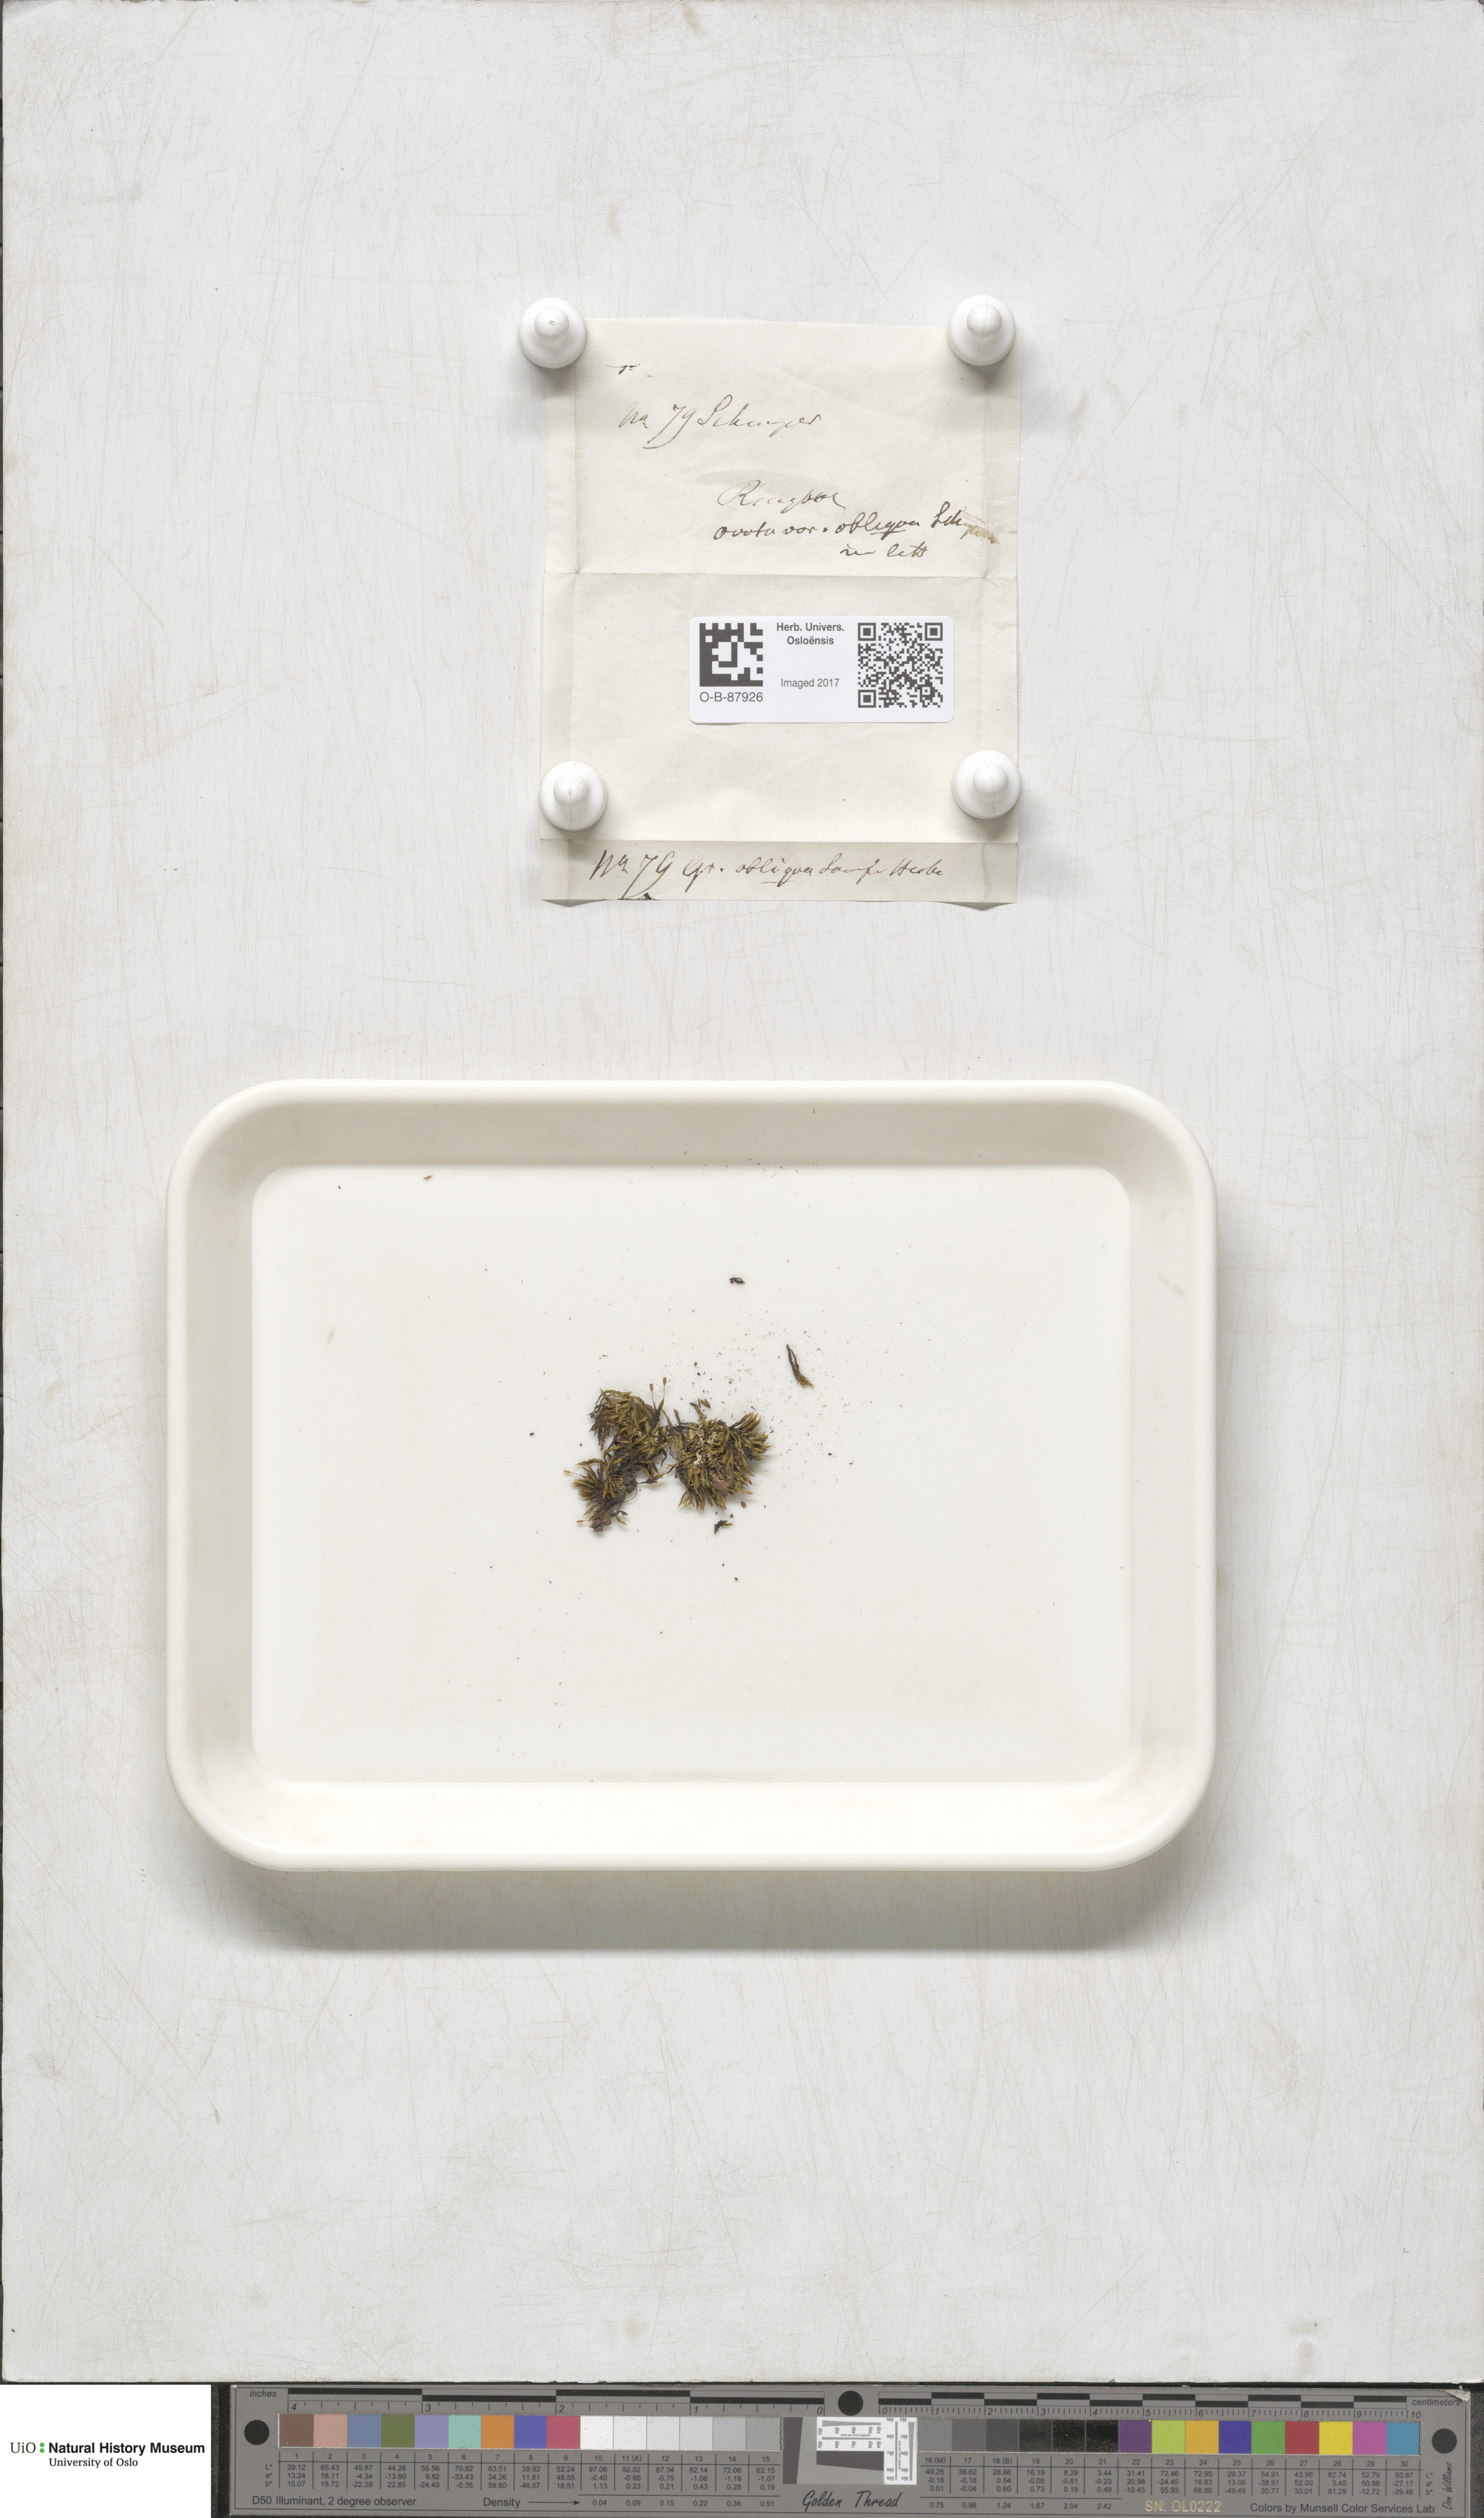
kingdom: Plantae
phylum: Bryophyta
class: Bryopsida
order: Grimmiales
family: Grimmiaceae
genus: Grimmia
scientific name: Grimmia ovalis
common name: Oval grimmia
